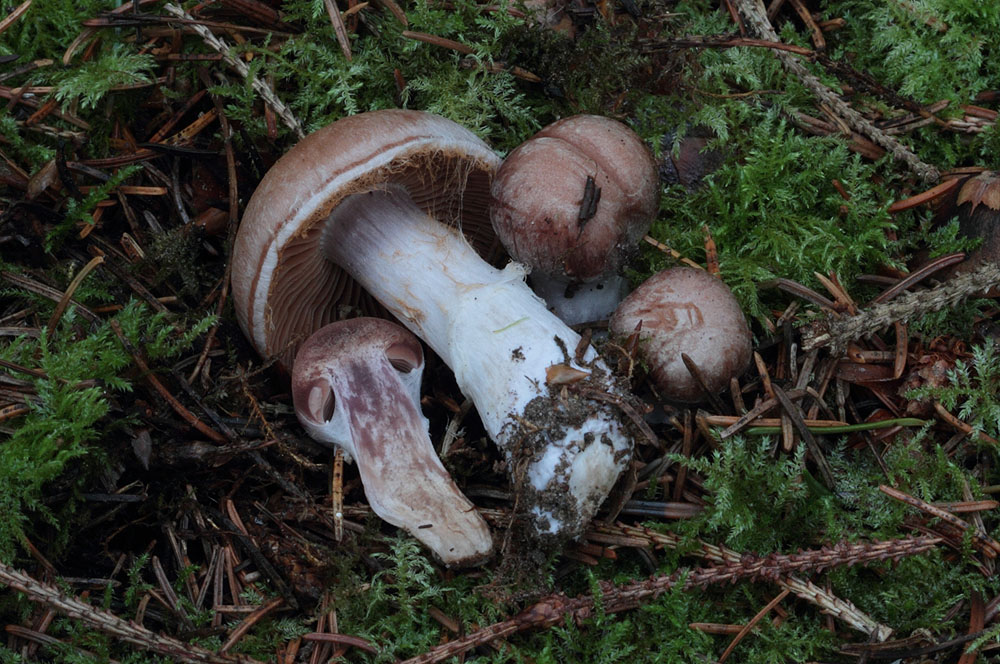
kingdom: Fungi
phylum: Basidiomycota
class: Agaricomycetes
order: Agaricales
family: Cortinariaceae
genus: Cortinarius
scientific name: Cortinarius dolabratus
